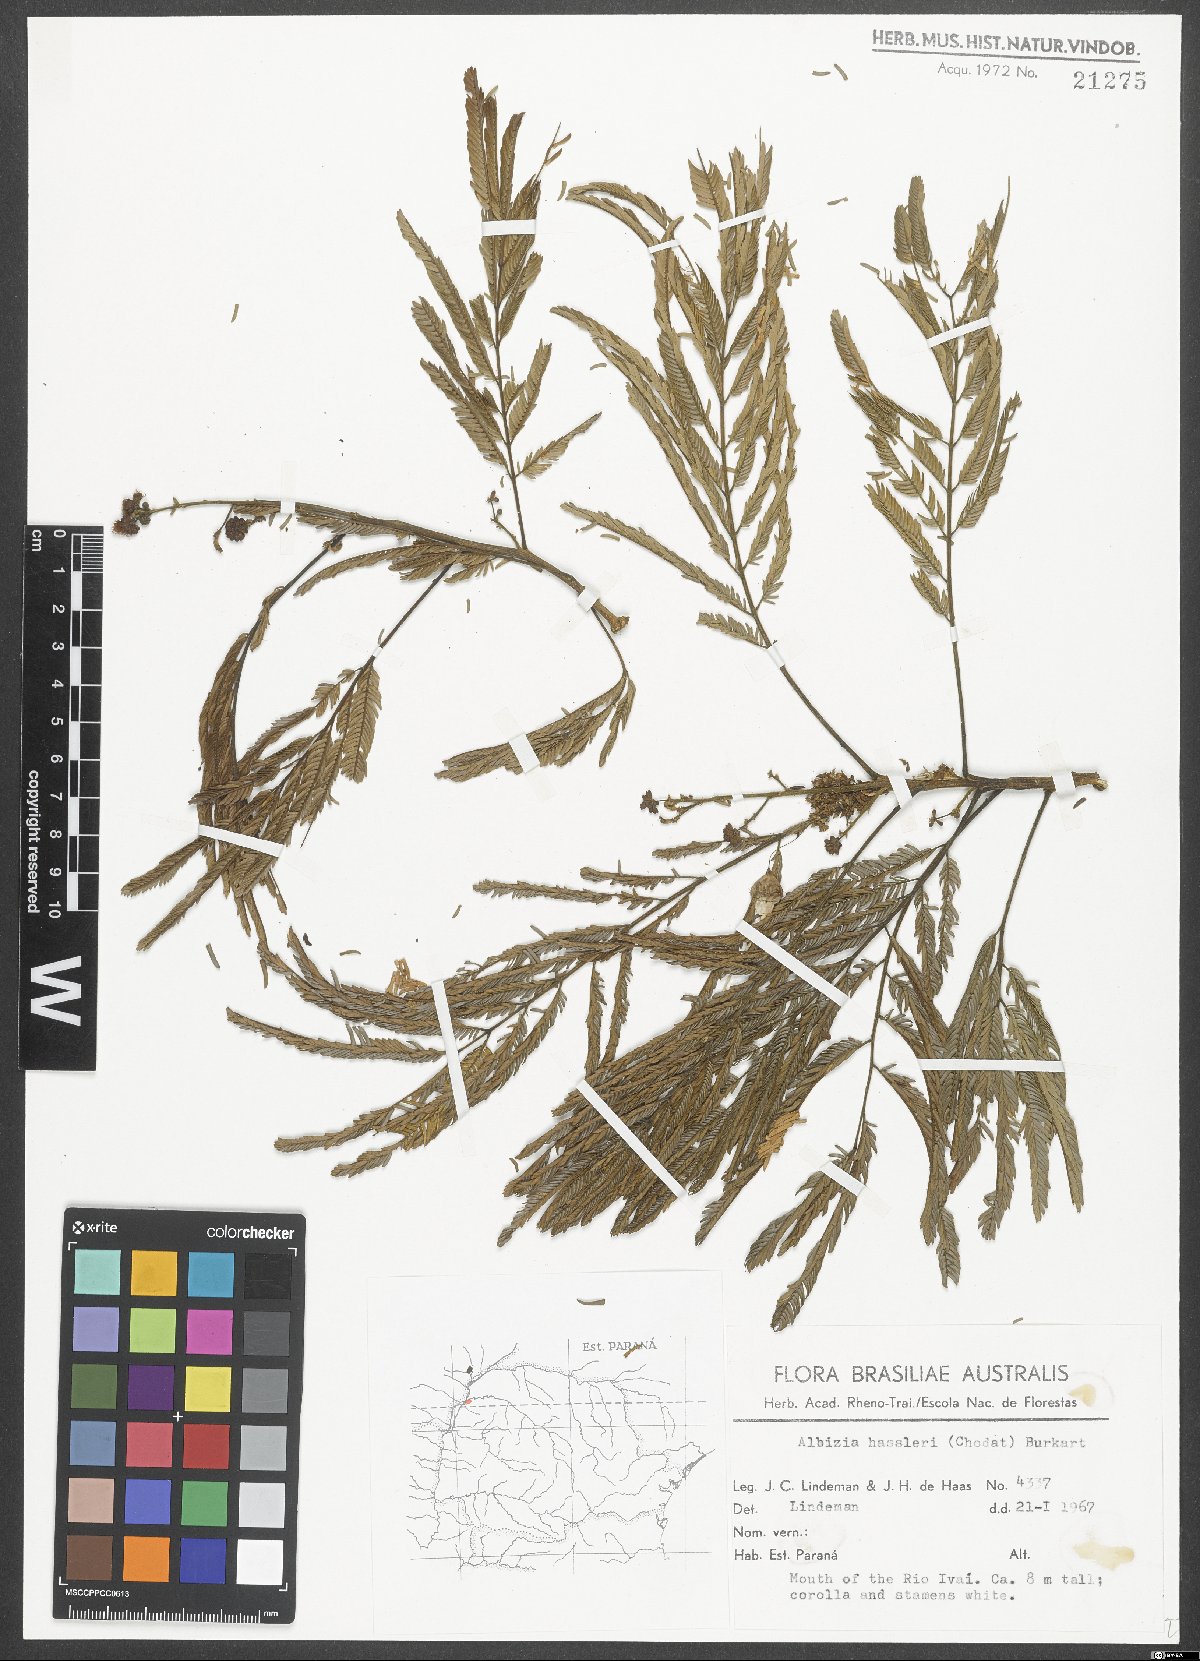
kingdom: Plantae
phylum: Tracheophyta
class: Magnoliopsida
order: Fabales
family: Fabaceae
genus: Albizia
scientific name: Albizia niopoides
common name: Silk tree
